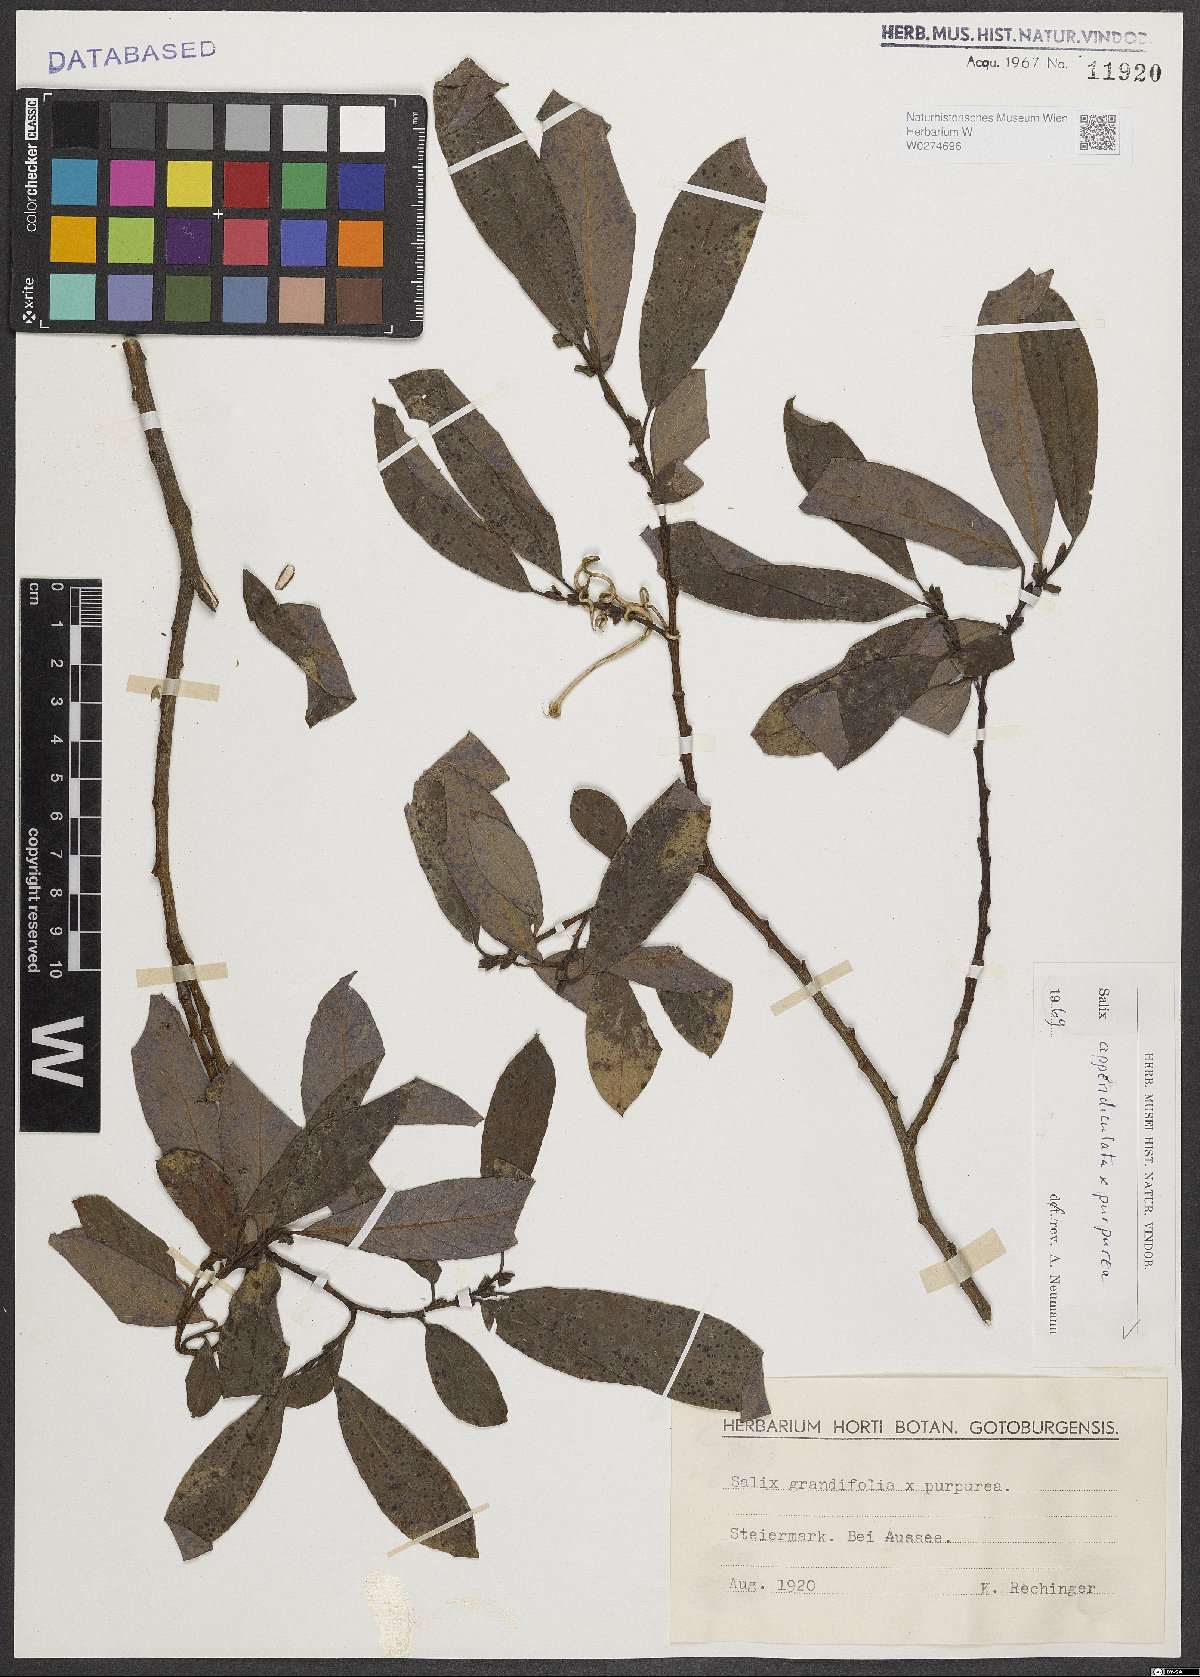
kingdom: Plantae
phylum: Tracheophyta
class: Magnoliopsida
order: Malpighiales
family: Salicaceae
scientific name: Salicaceae
